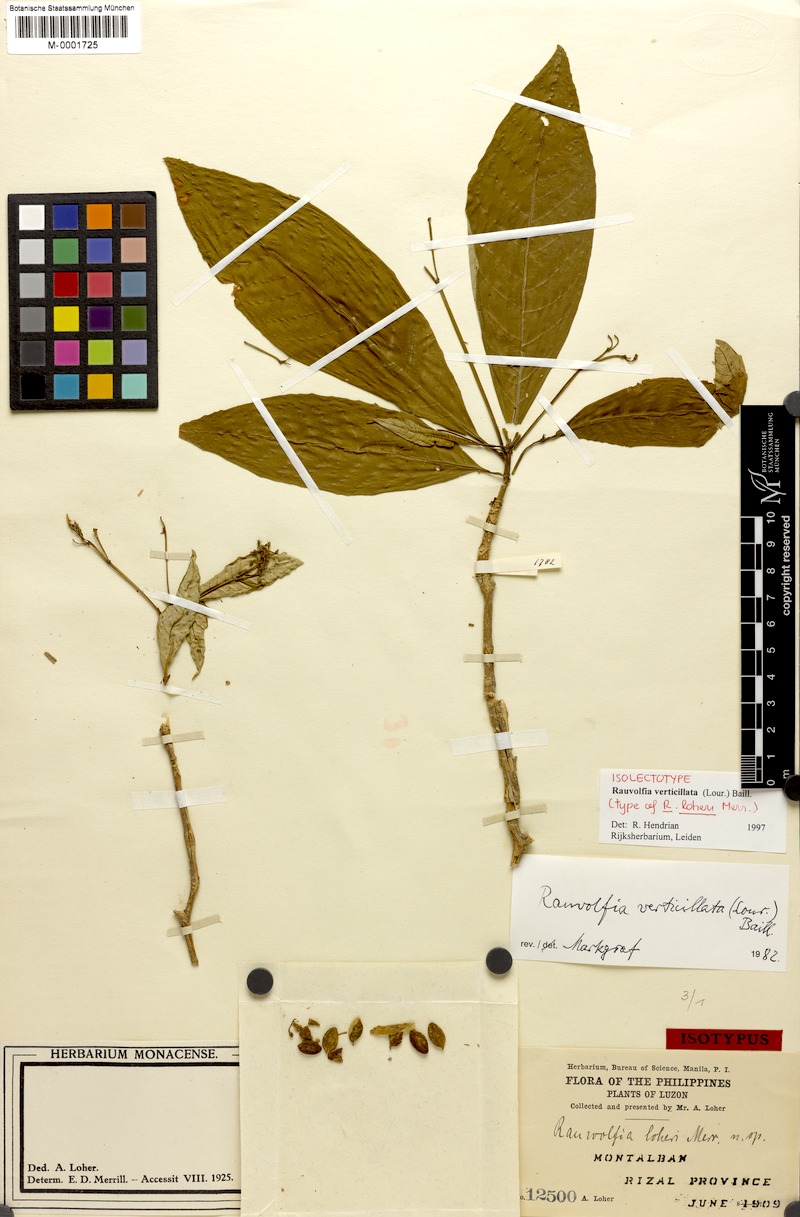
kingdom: Plantae
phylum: Tracheophyta
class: Magnoliopsida
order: Gentianales
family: Apocynaceae
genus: Rauvolfia
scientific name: Rauvolfia verticillata
